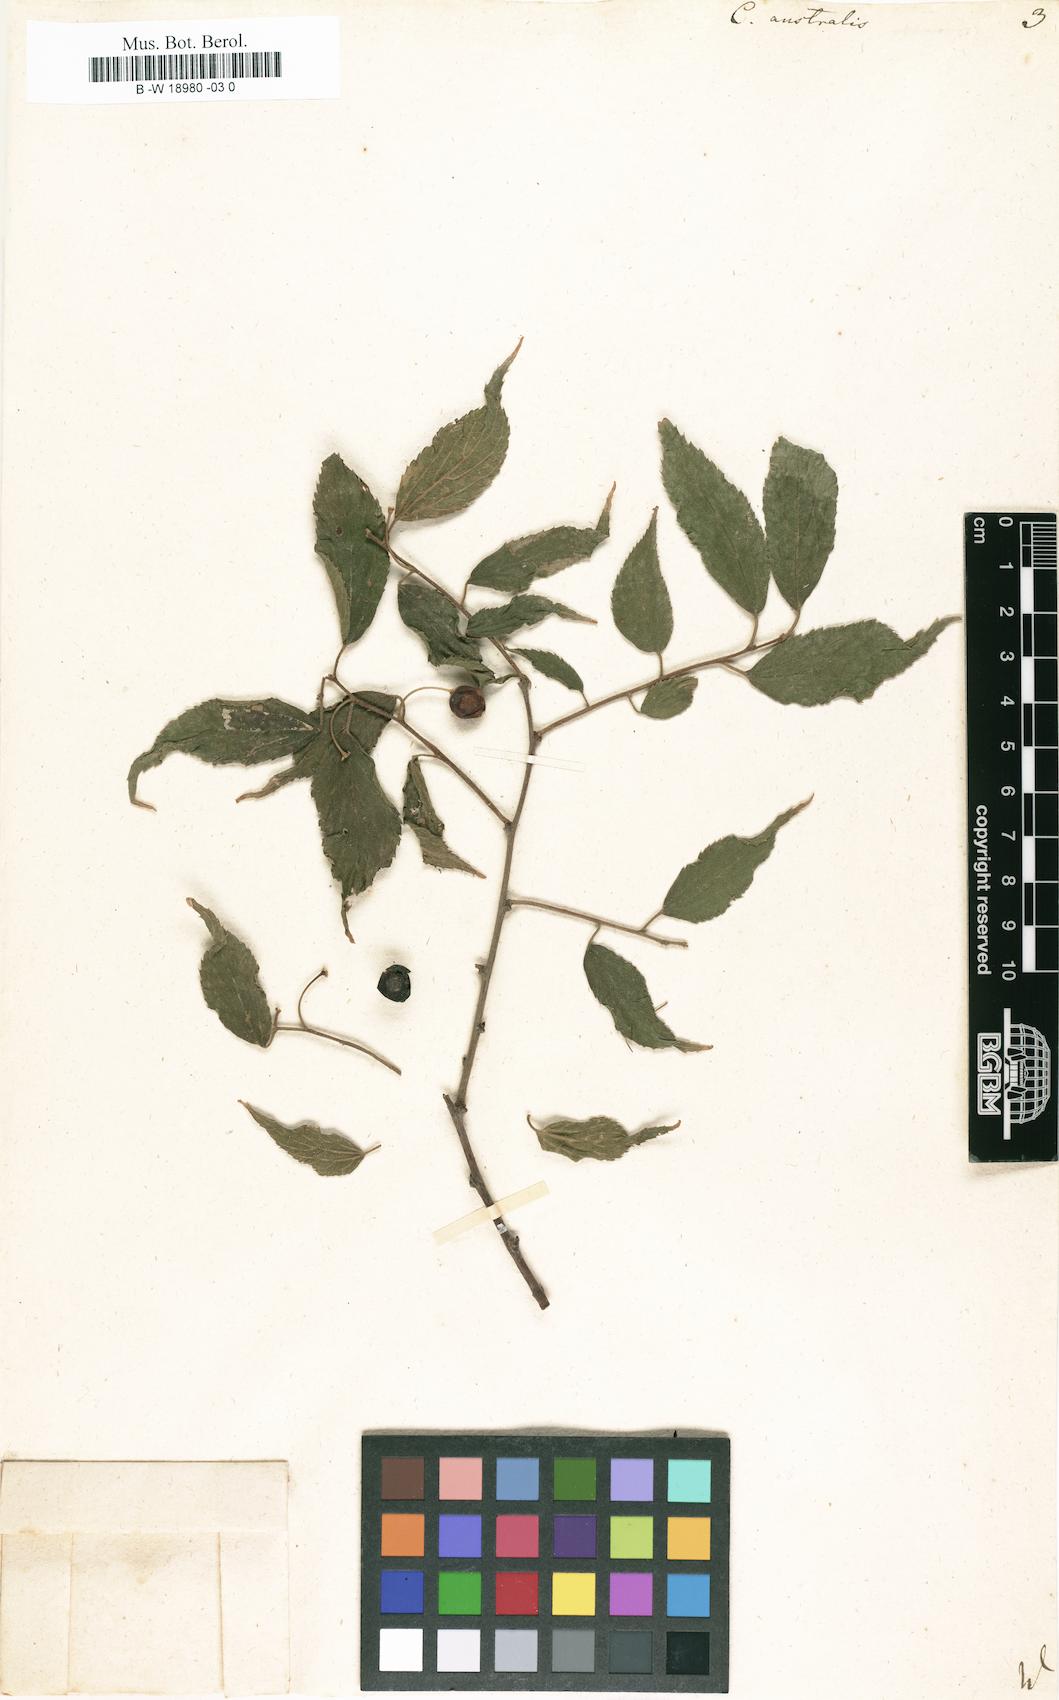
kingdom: Plantae
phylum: Tracheophyta
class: Magnoliopsida
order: Rosales
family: Cannabaceae
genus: Celtis
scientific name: Celtis australis
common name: European hackberry
